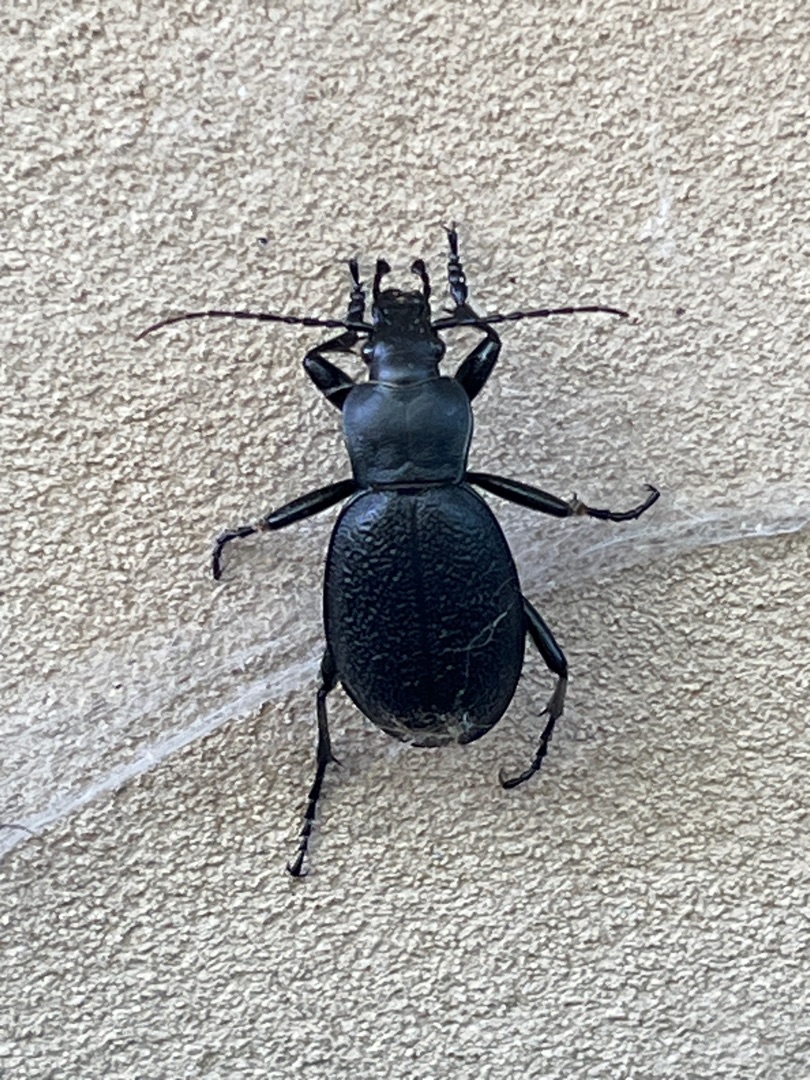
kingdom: Animalia
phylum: Arthropoda
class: Insecta
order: Coleoptera
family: Carabidae
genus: Carabus
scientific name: Carabus coriaceus
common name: Læderløber
